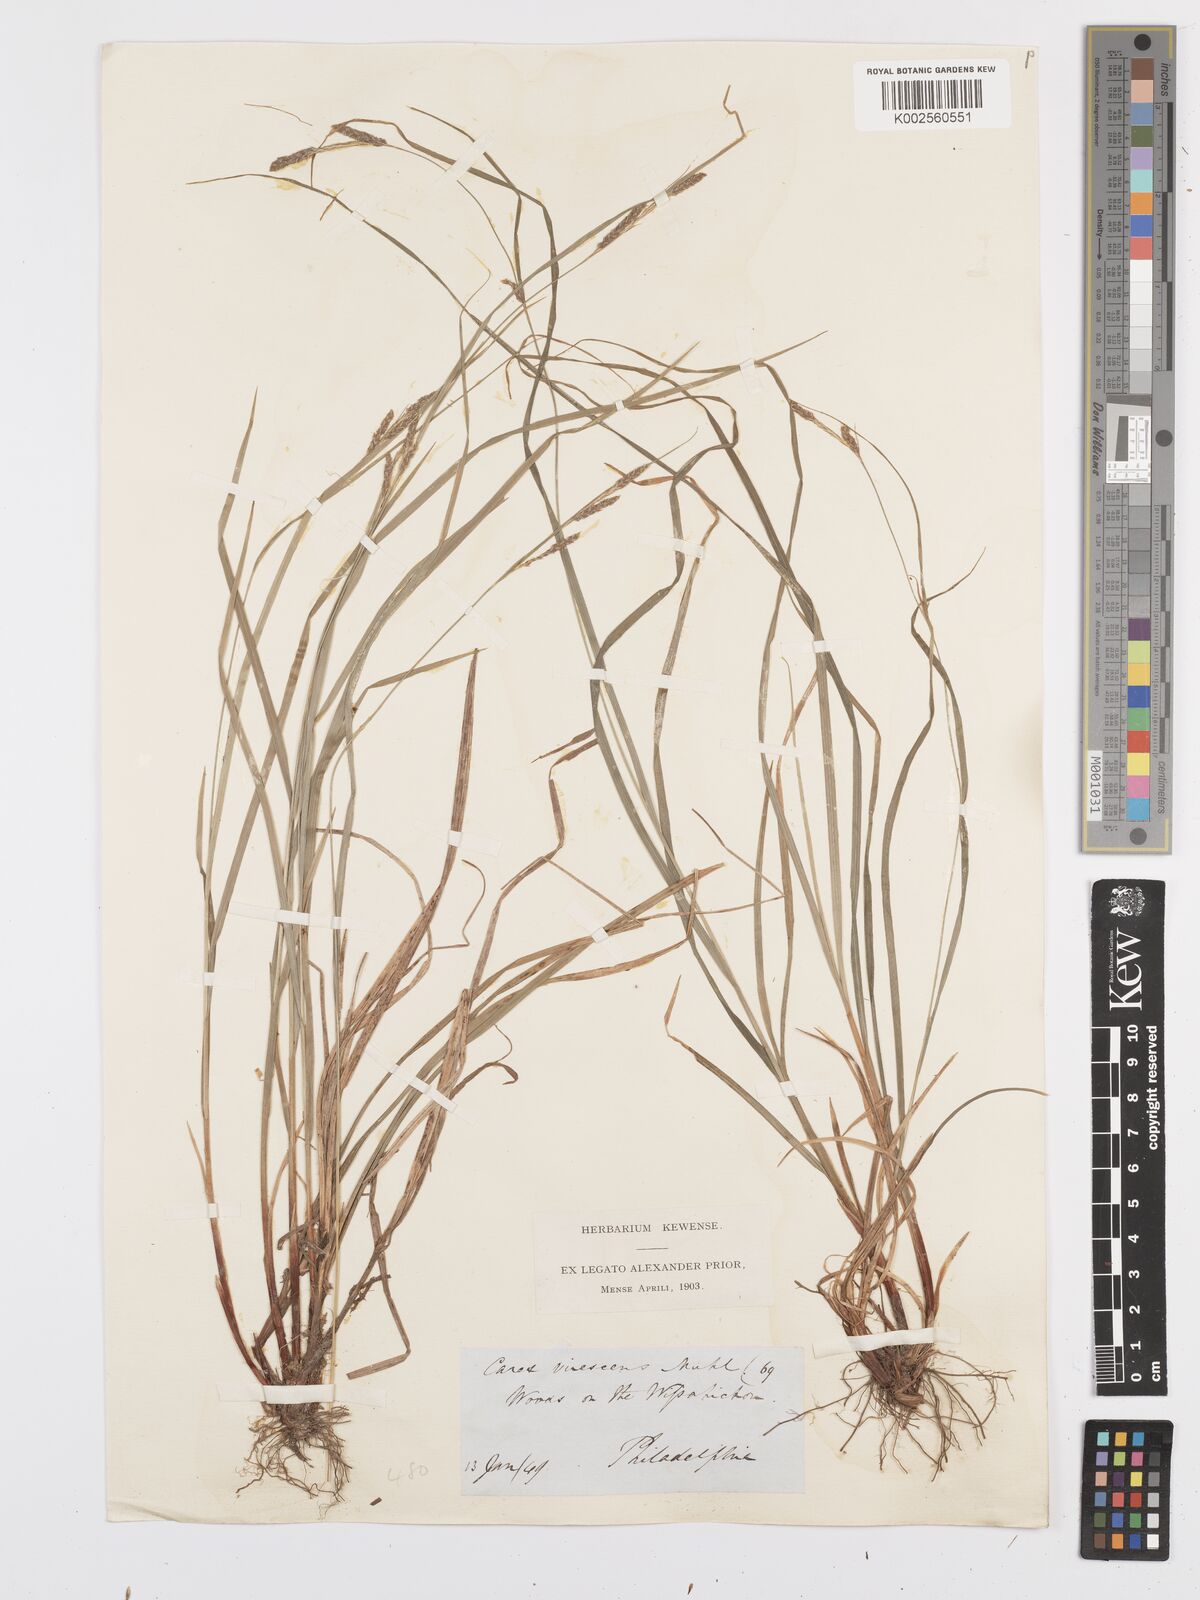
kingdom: Plantae
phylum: Tracheophyta
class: Liliopsida
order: Poales
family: Cyperaceae
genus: Carex
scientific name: Carex virescens
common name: Ribbed sedge
